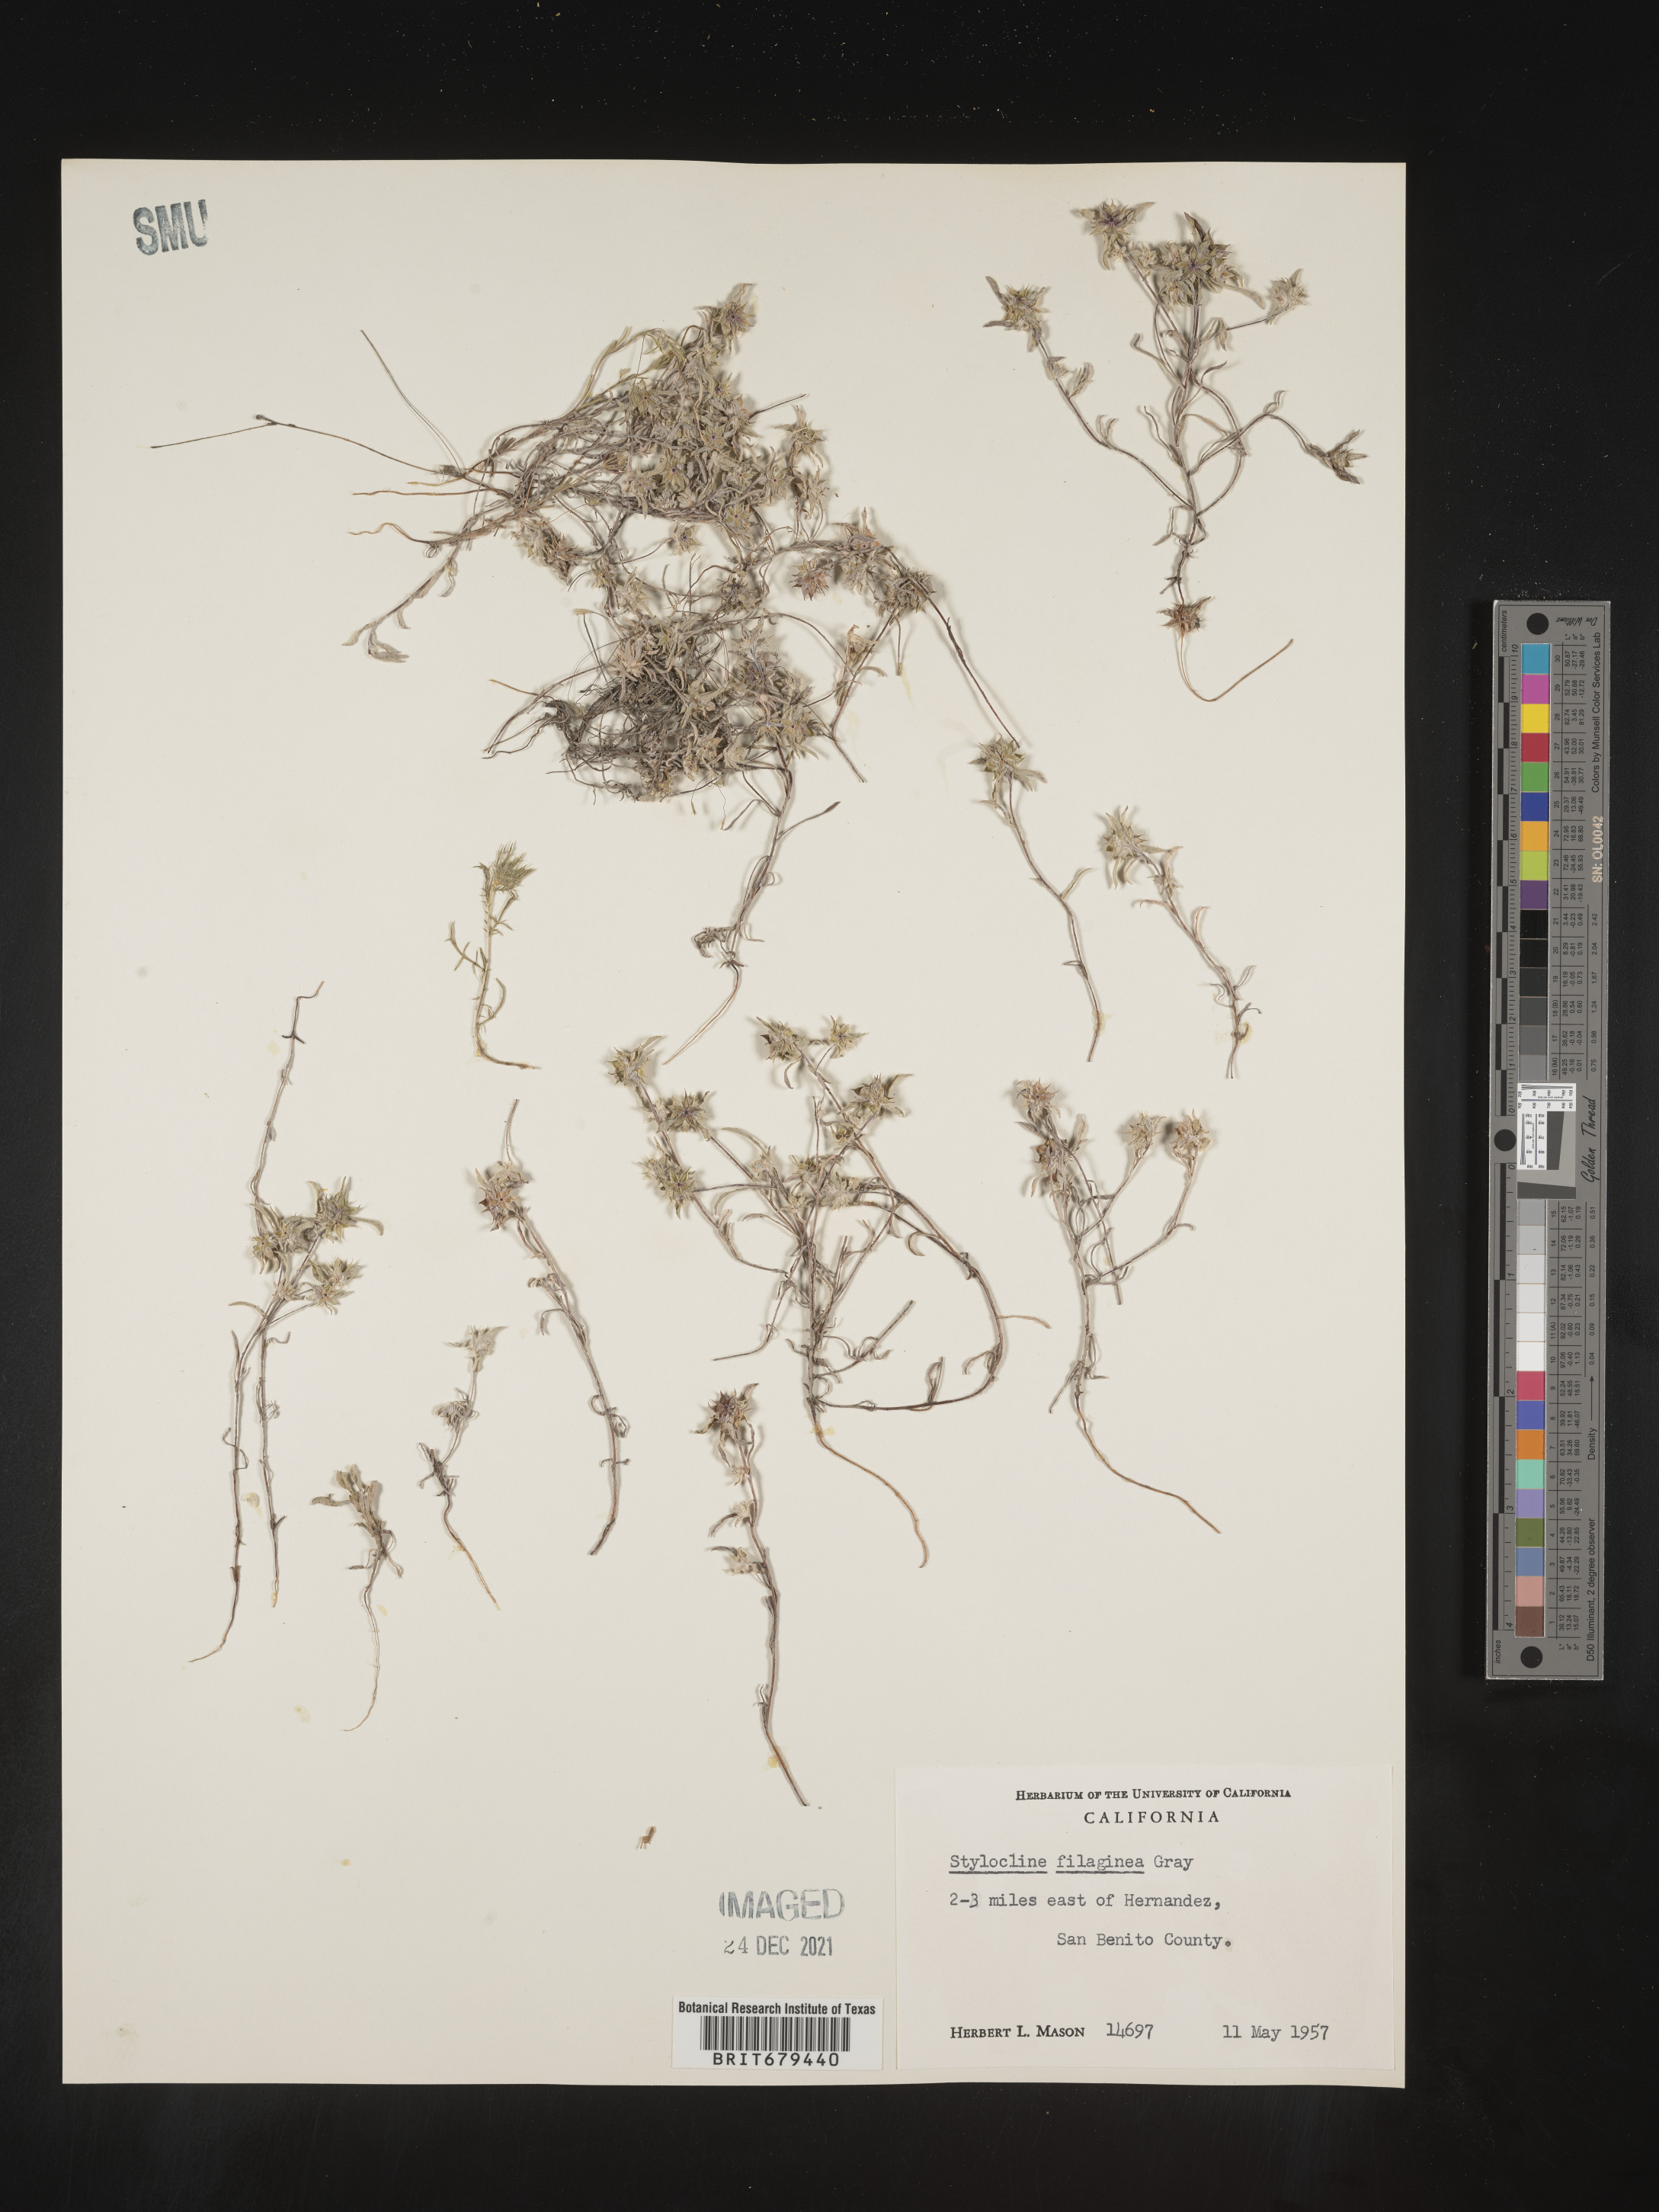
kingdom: Plantae
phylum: Tracheophyta
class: Magnoliopsida
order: Asterales
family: Asteraceae
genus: Ancistrocarphus
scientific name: Ancistrocarphus filagineus
